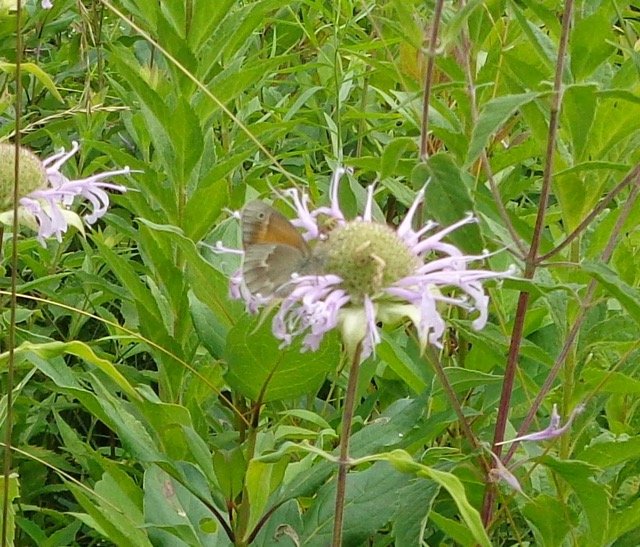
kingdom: Animalia
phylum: Arthropoda
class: Insecta
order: Lepidoptera
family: Nymphalidae
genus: Coenonympha
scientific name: Coenonympha tullia
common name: Large Heath
